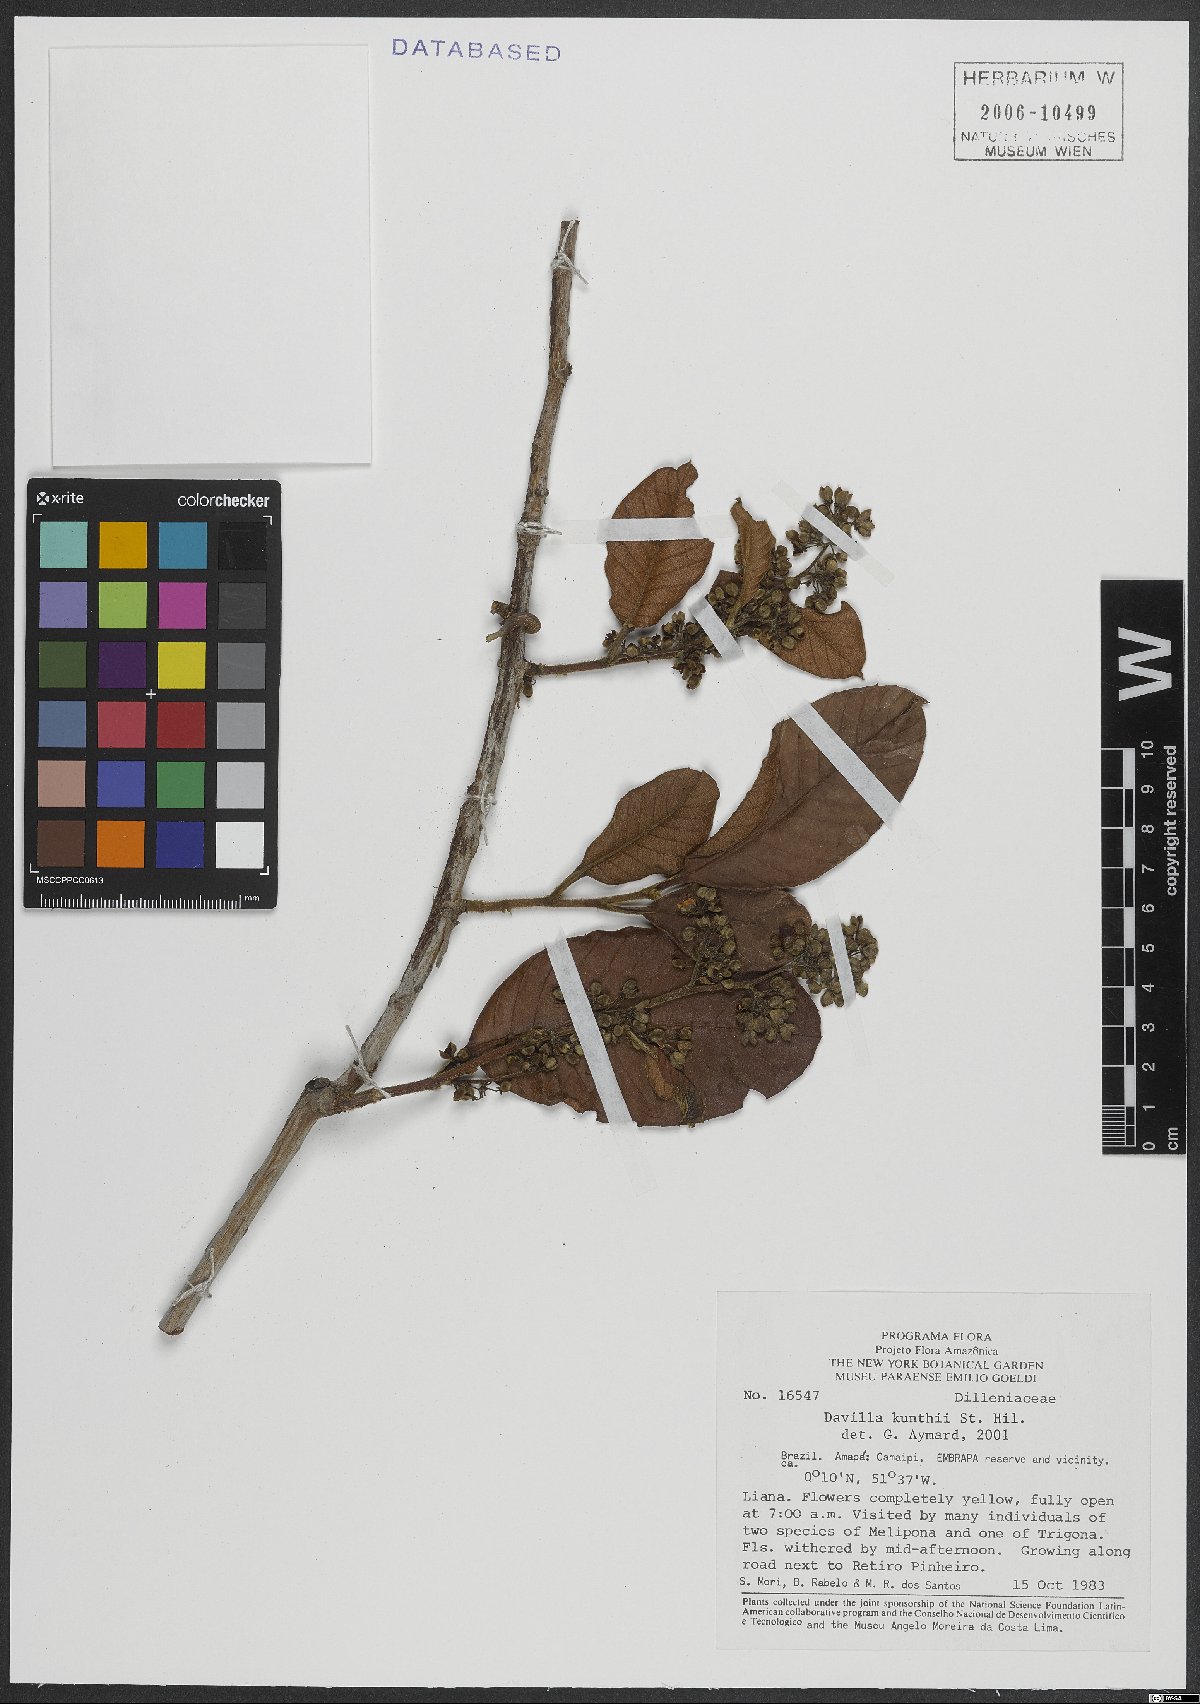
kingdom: Plantae
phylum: Tracheophyta
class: Magnoliopsida
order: Dilleniales
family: Dilleniaceae
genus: Davilla
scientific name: Davilla kunthii
